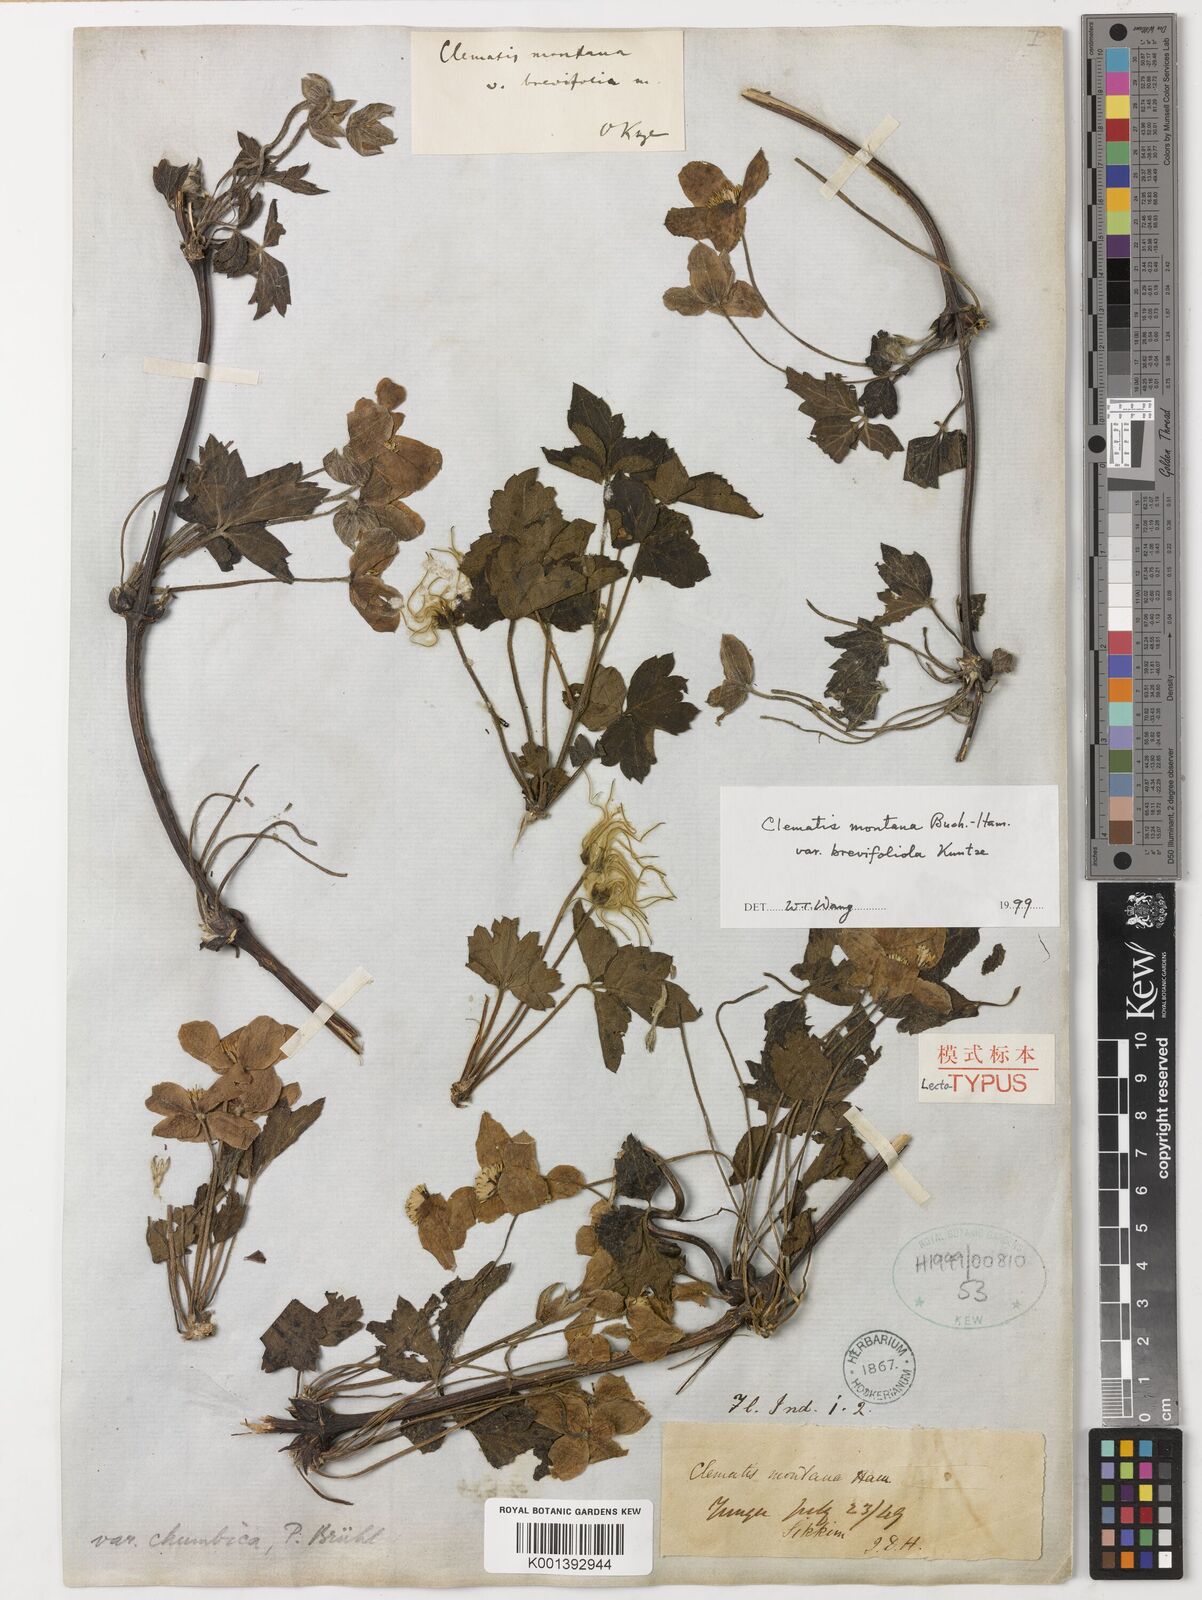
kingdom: Plantae
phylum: Tracheophyta
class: Magnoliopsida
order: Ranunculales
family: Ranunculaceae
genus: Clematis
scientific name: Clematis napaulensis
